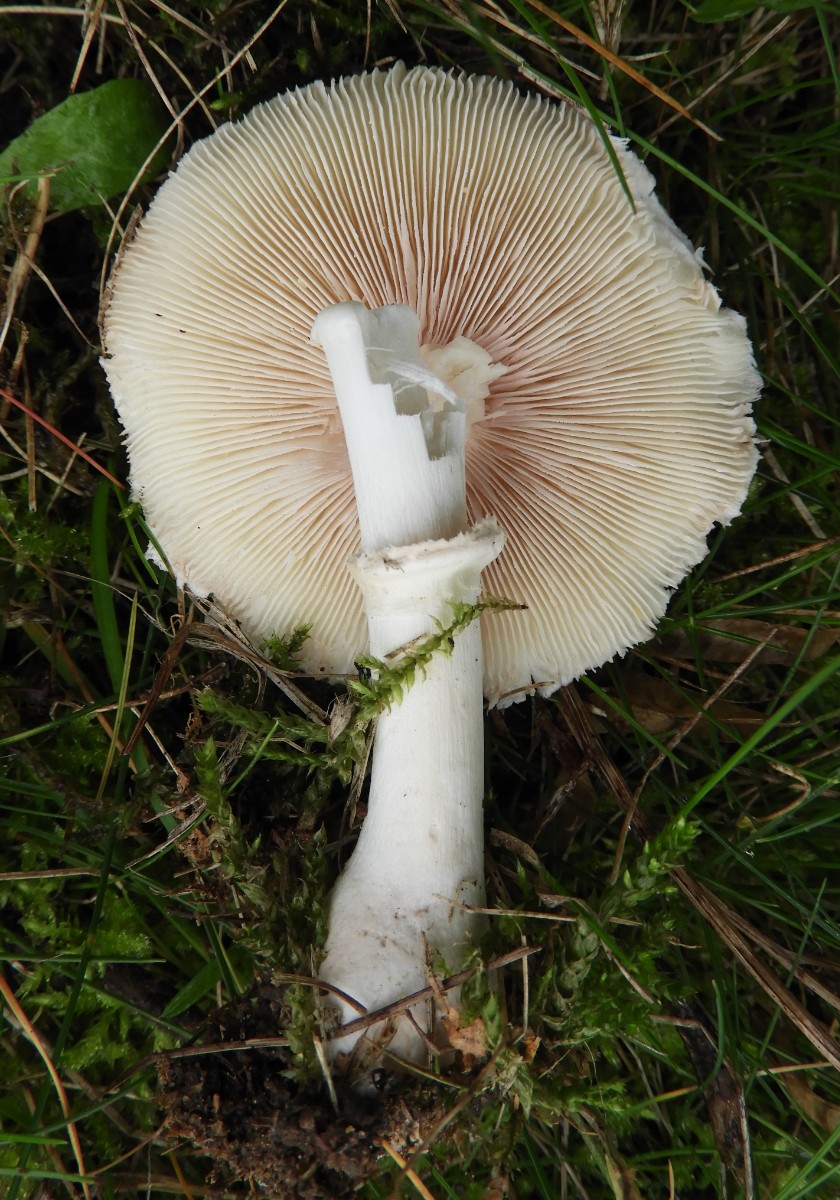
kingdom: Fungi
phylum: Basidiomycota
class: Agaricomycetes
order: Agaricales
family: Agaricaceae
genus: Leucoagaricus
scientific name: Leucoagaricus leucothites
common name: rosabladet silkehat
